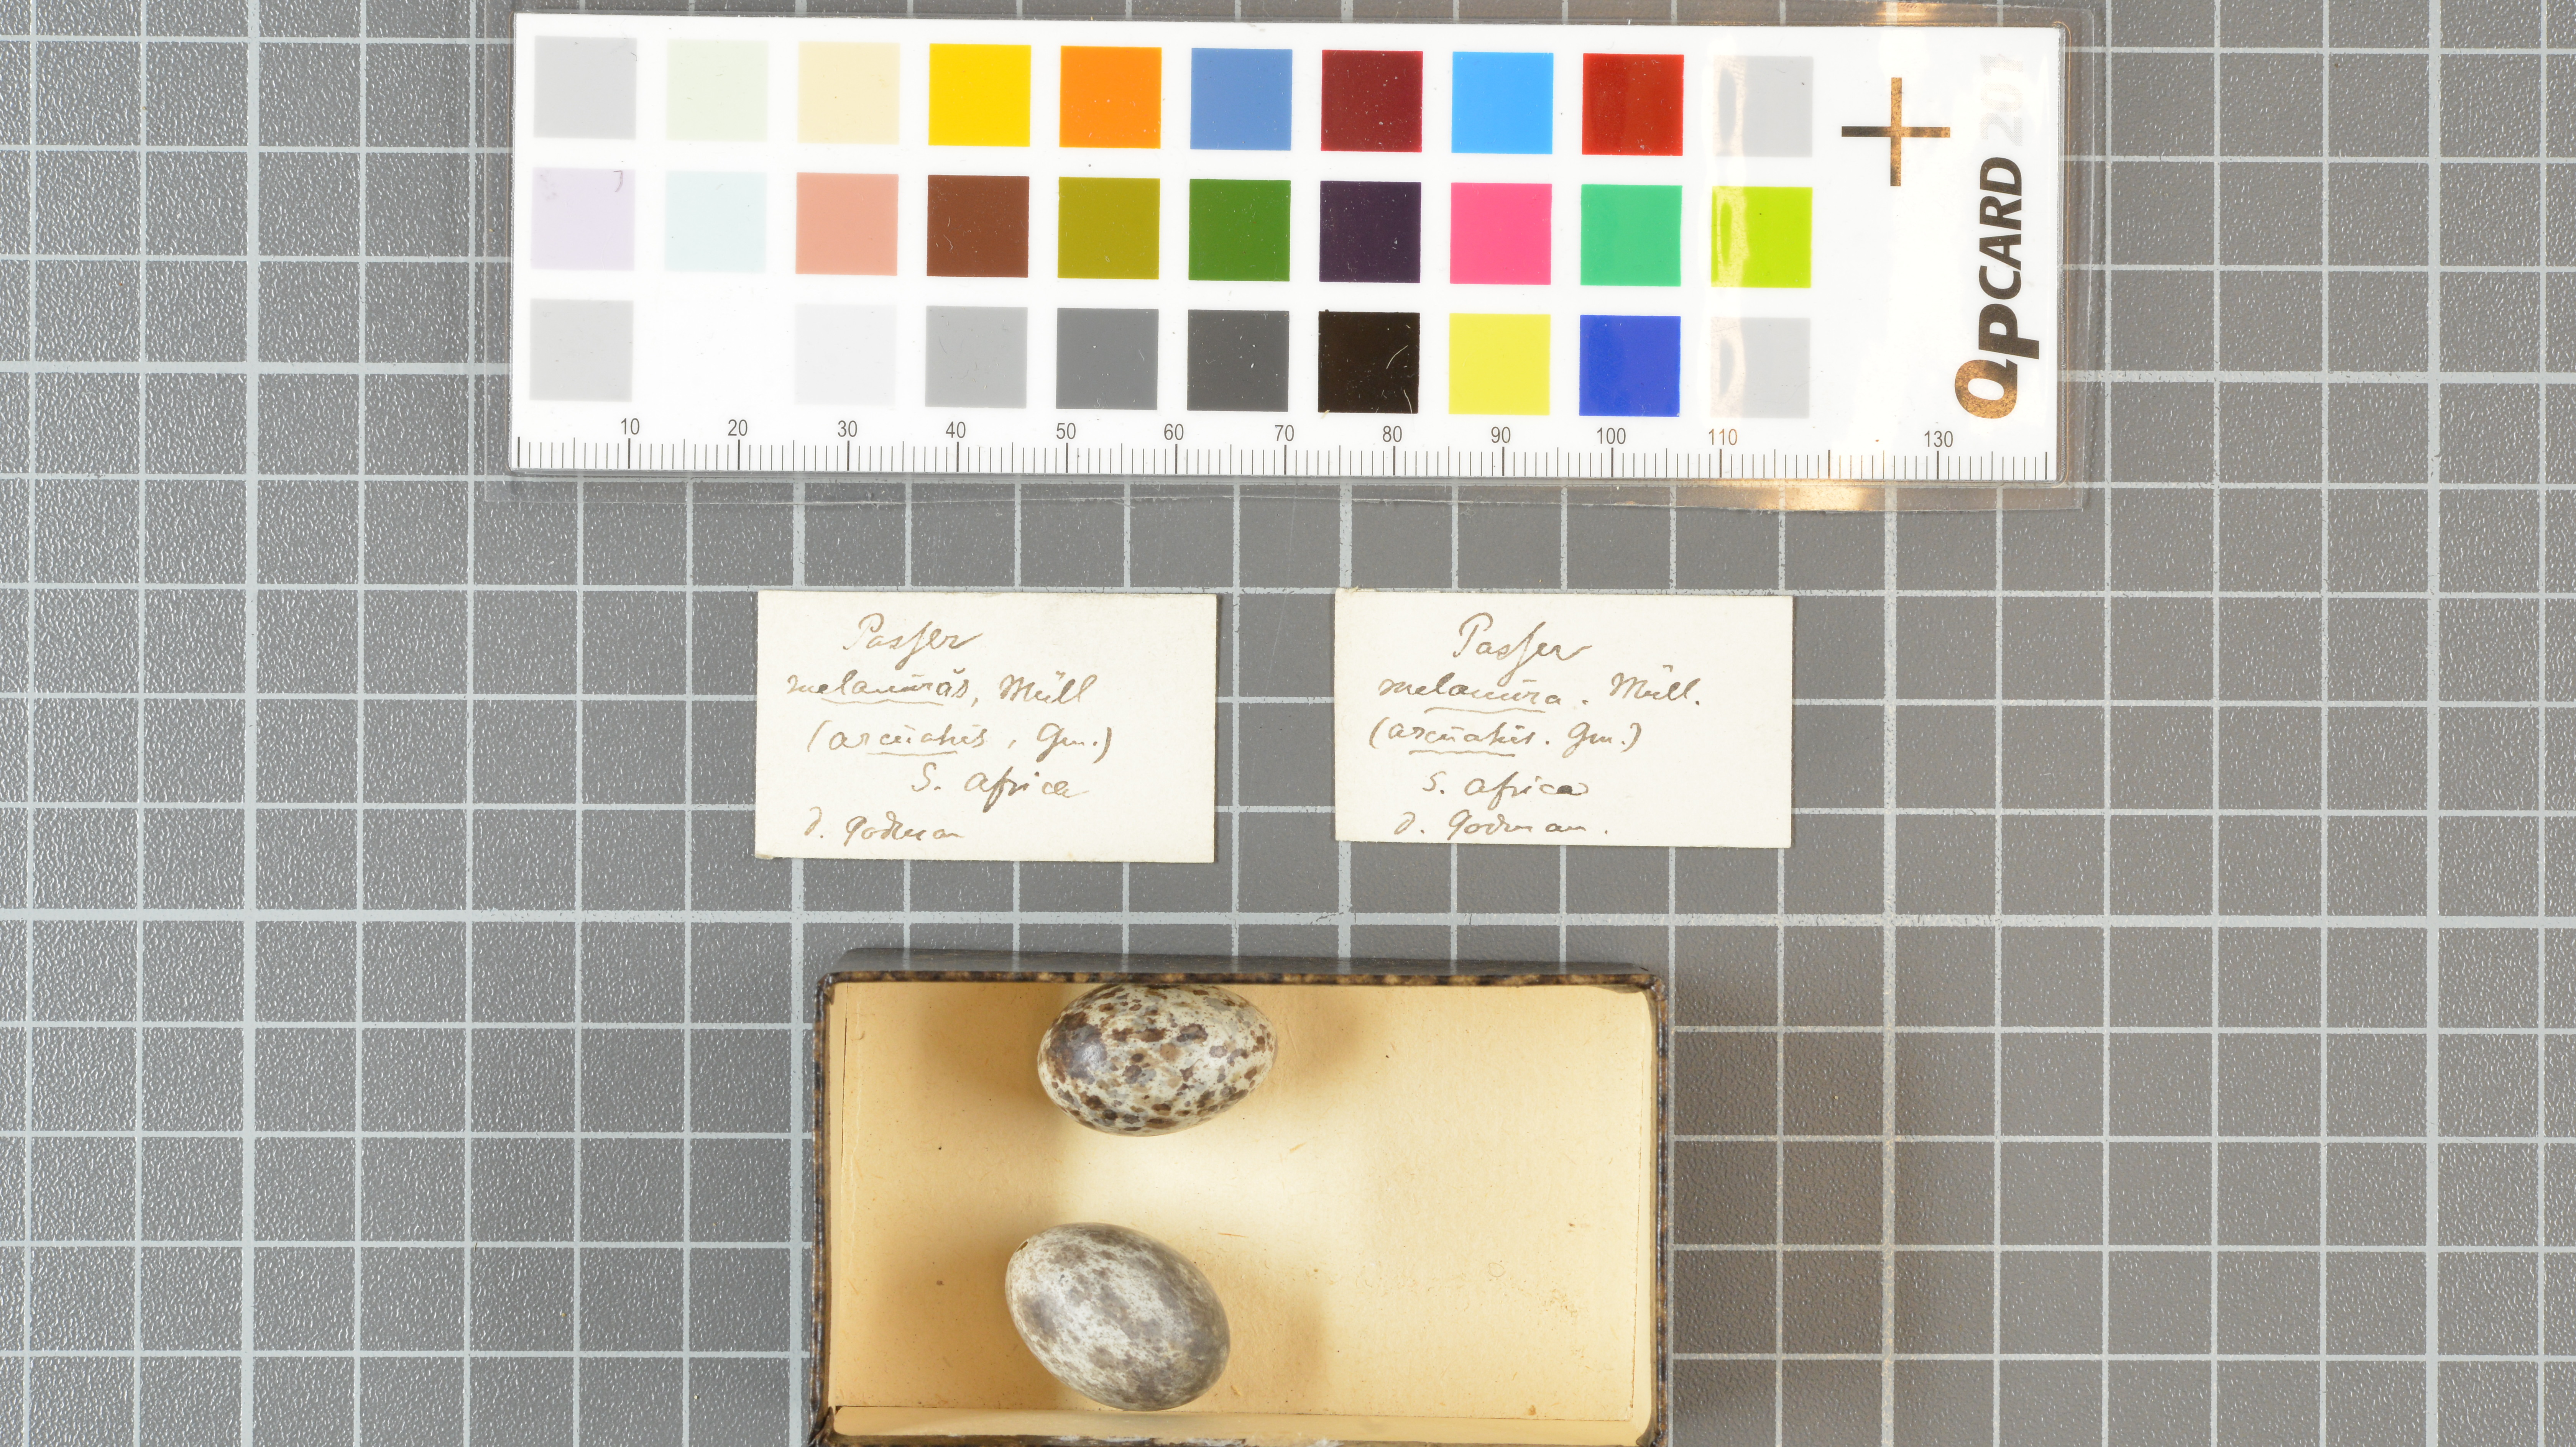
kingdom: Animalia
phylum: Chordata
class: Aves
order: Passeriformes
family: Passeridae
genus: Passer
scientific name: Passer melanurus
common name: Cape sparrow
